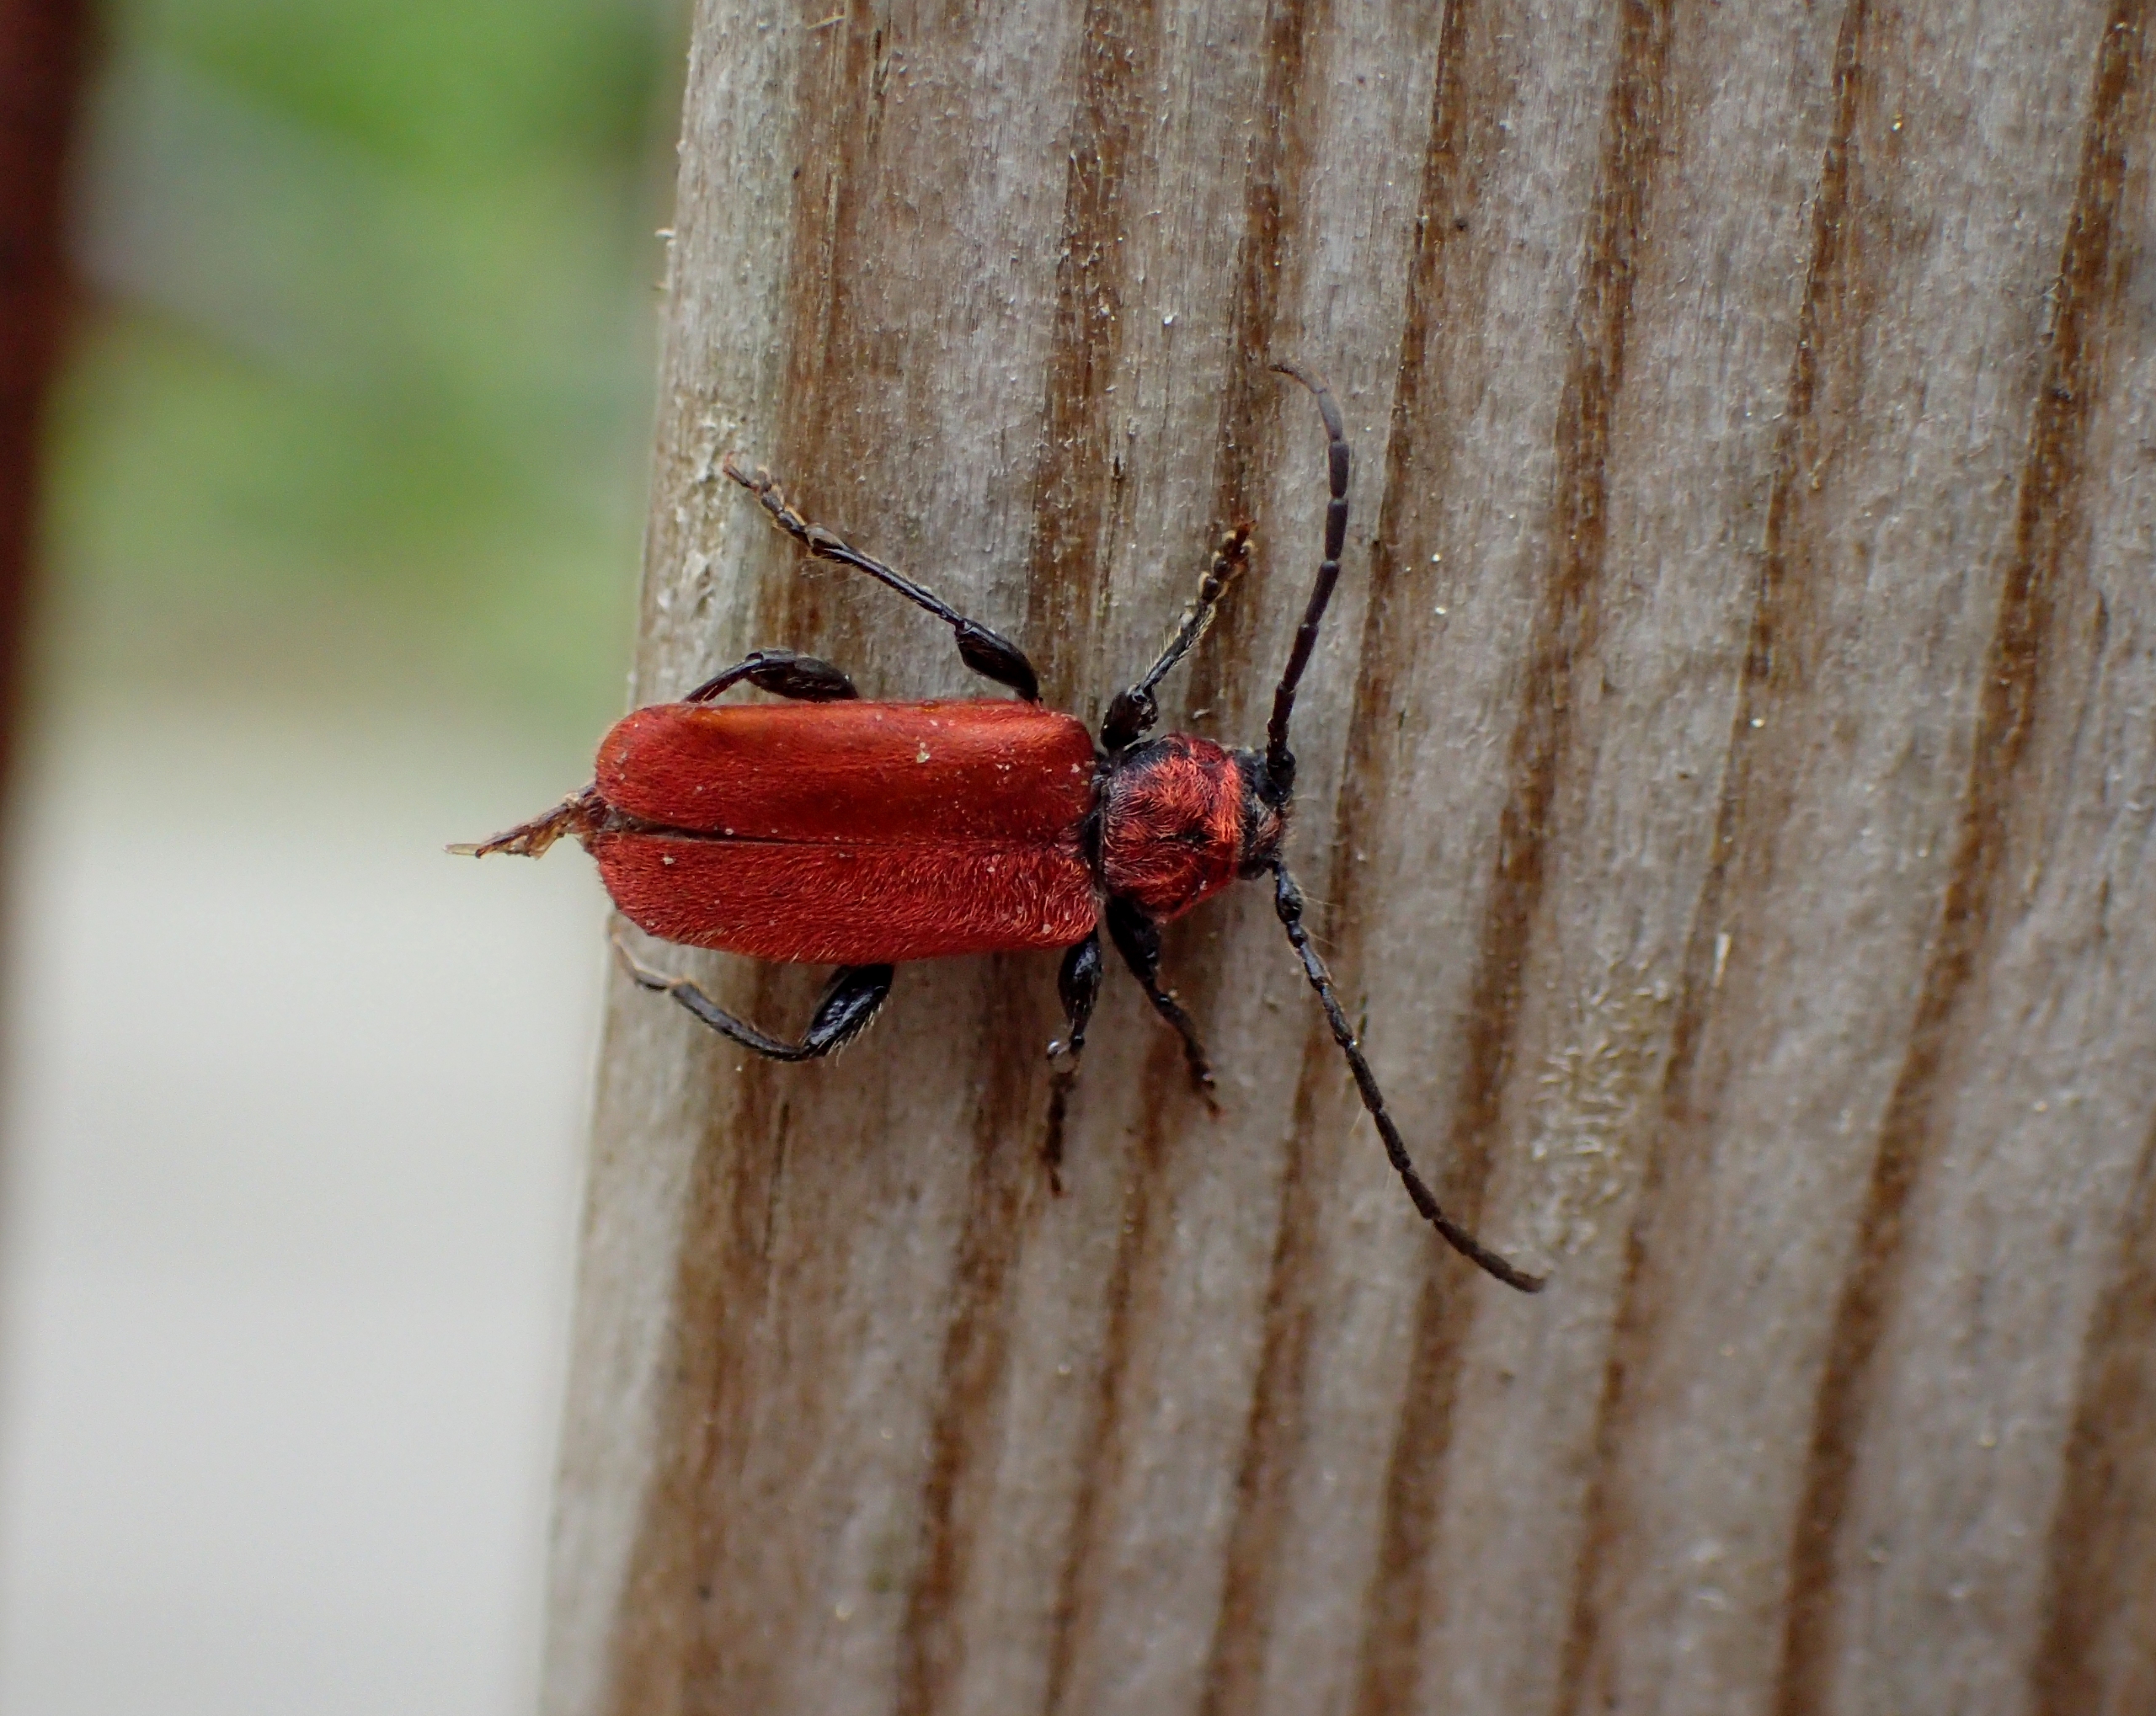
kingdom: Animalia
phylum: Arthropoda
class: Insecta
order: Coleoptera
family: Cerambycidae
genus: Pyrrhidium
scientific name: Pyrrhidium sanguineum
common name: Rød skivebuk
